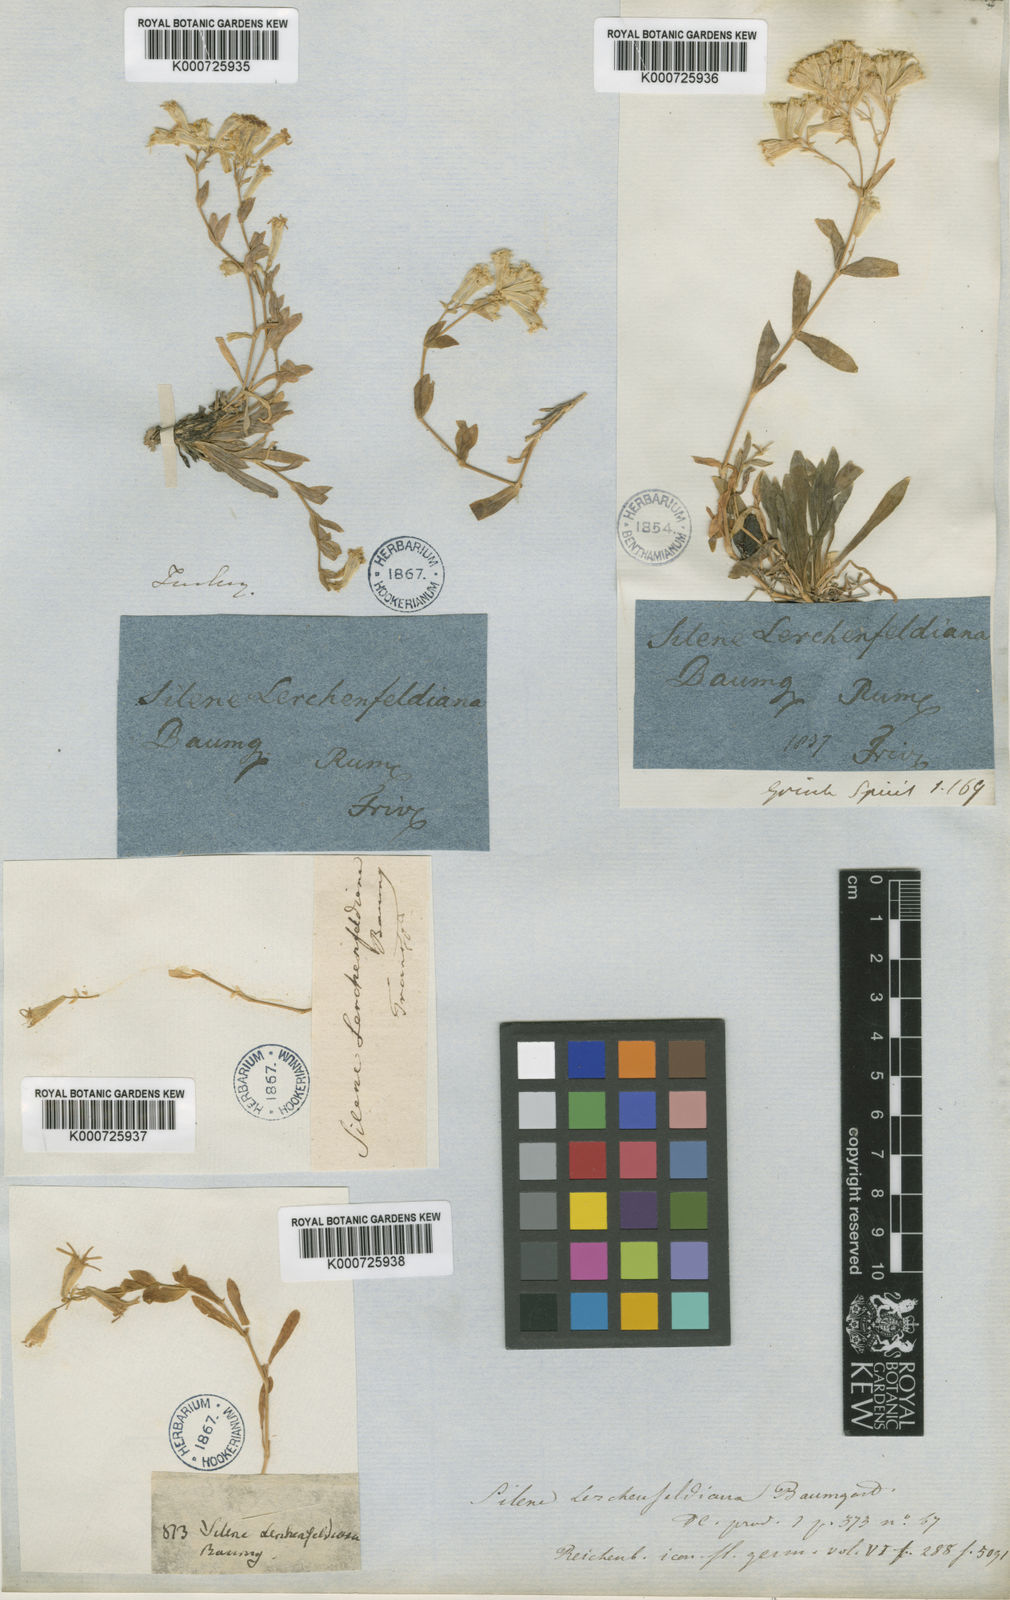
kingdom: Plantae
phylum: Tracheophyta
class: Magnoliopsida
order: Caryophyllales
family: Caryophyllaceae
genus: Atocion
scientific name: Atocion lerchenfeldianum
